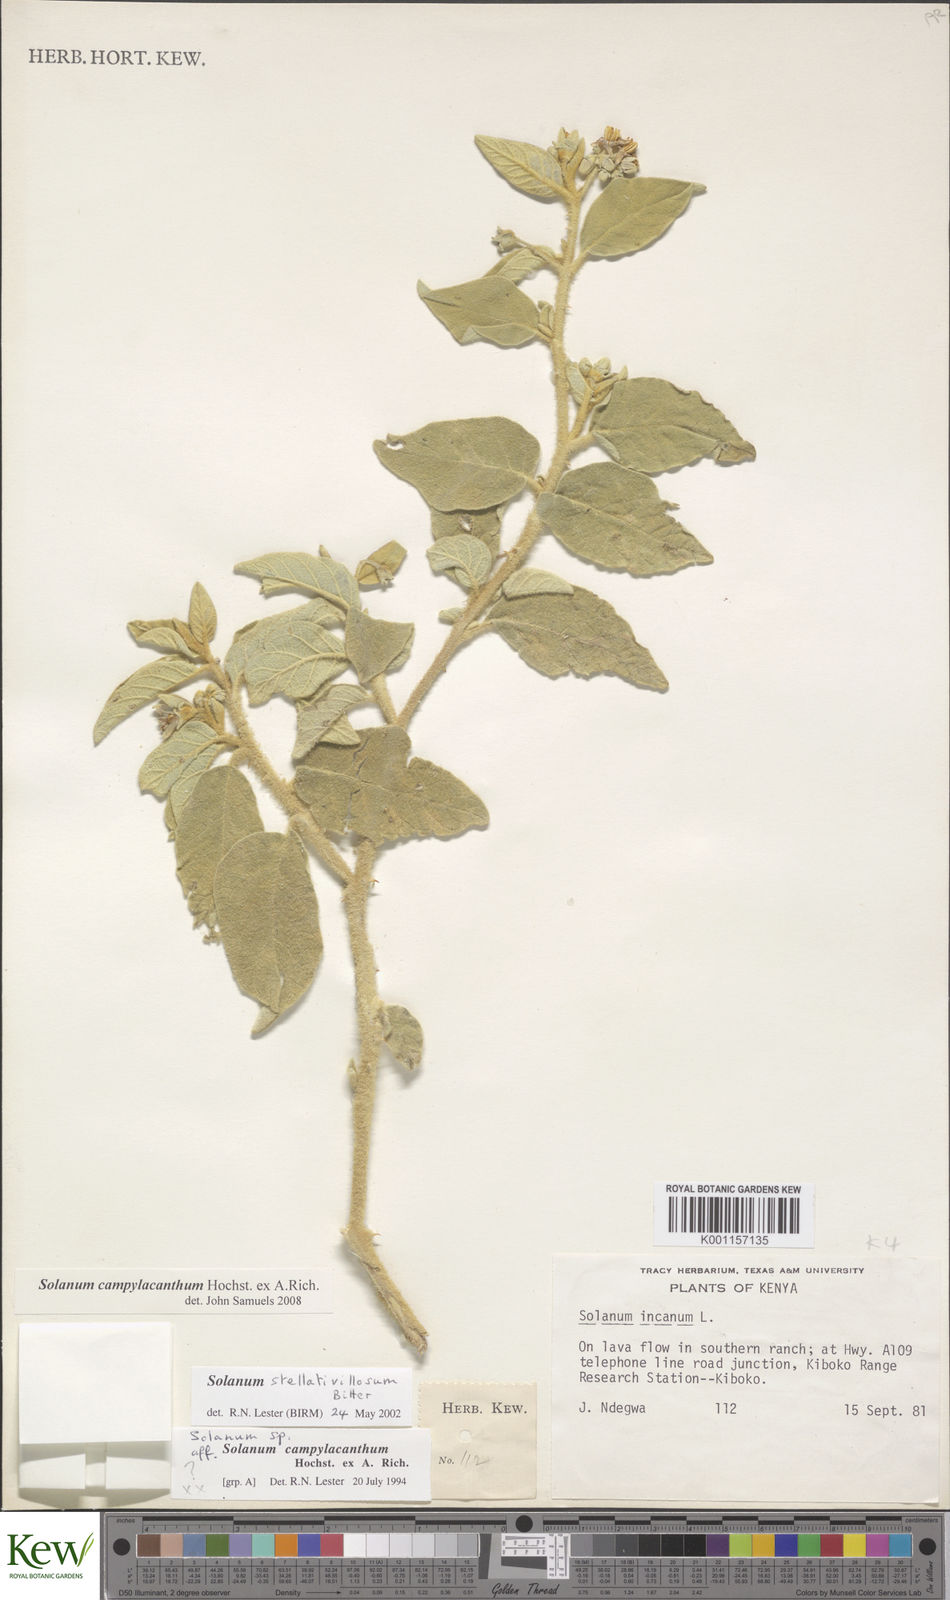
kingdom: Plantae
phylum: Tracheophyta
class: Magnoliopsida
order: Solanales
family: Solanaceae
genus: Solanum
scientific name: Solanum campylacanthum
